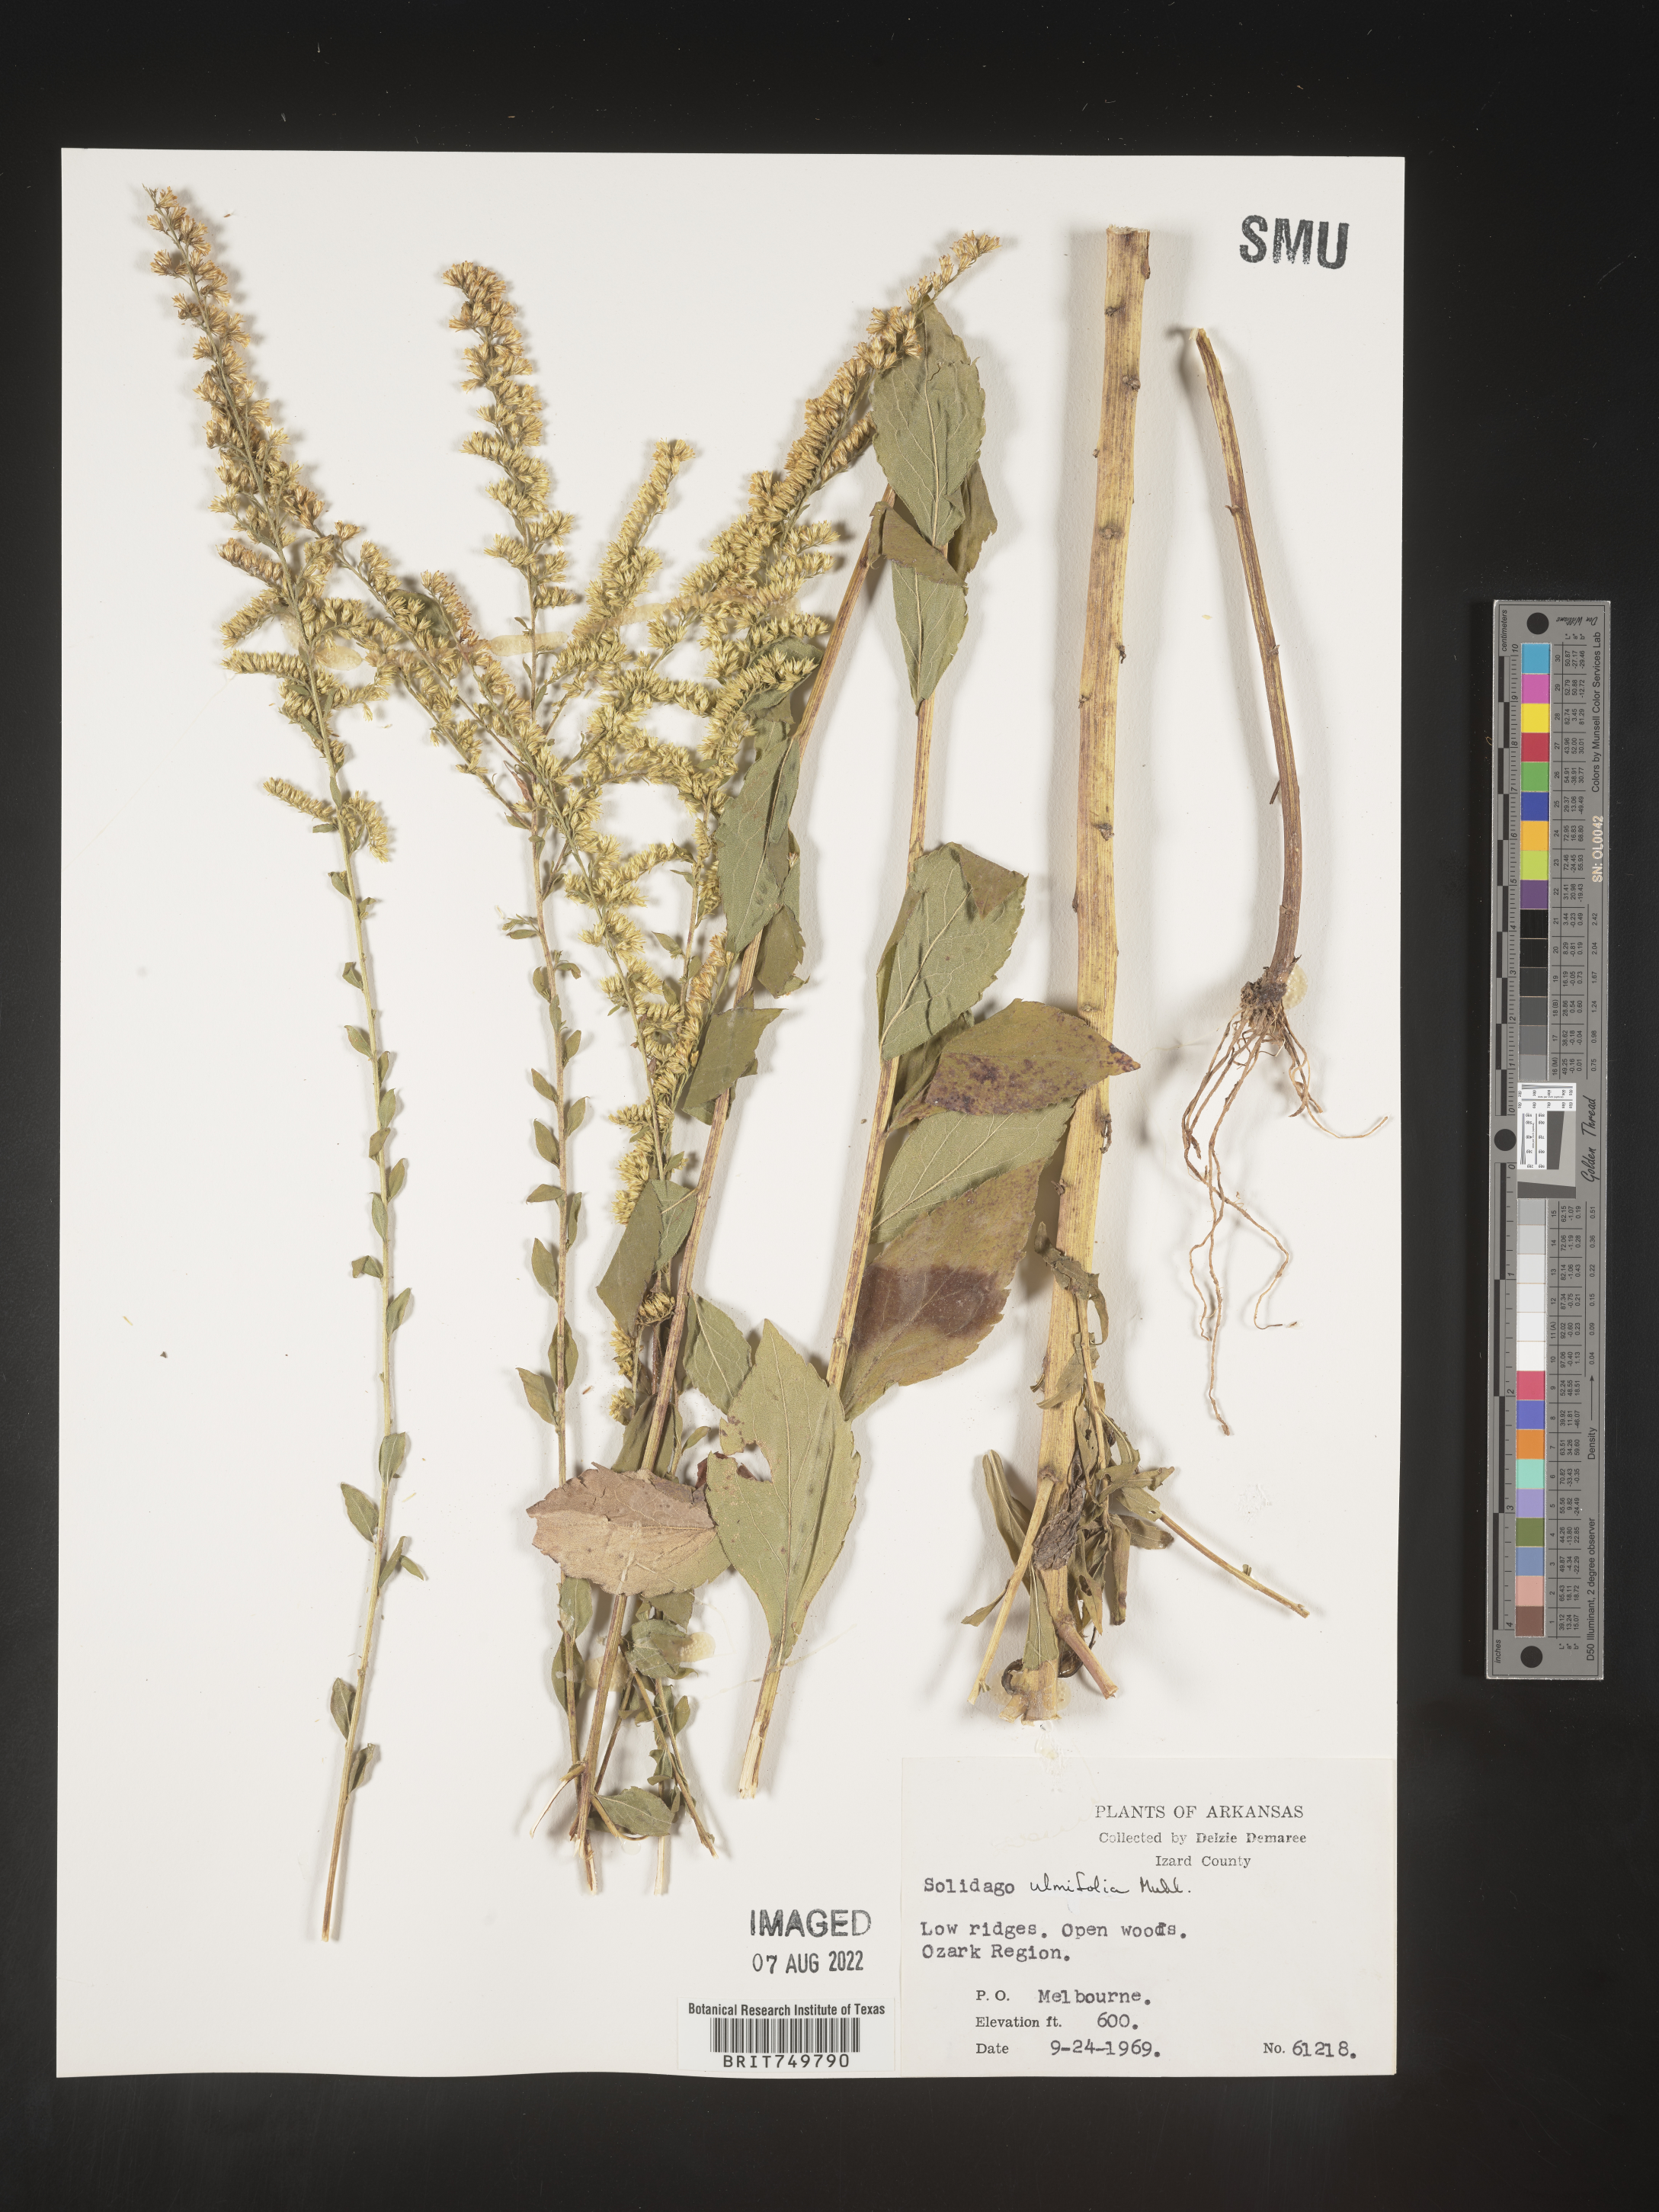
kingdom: Plantae
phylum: Tracheophyta
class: Magnoliopsida
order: Asterales
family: Asteraceae
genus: Solidago
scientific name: Solidago ulmifolia
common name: Elm-leaf goldenrod
